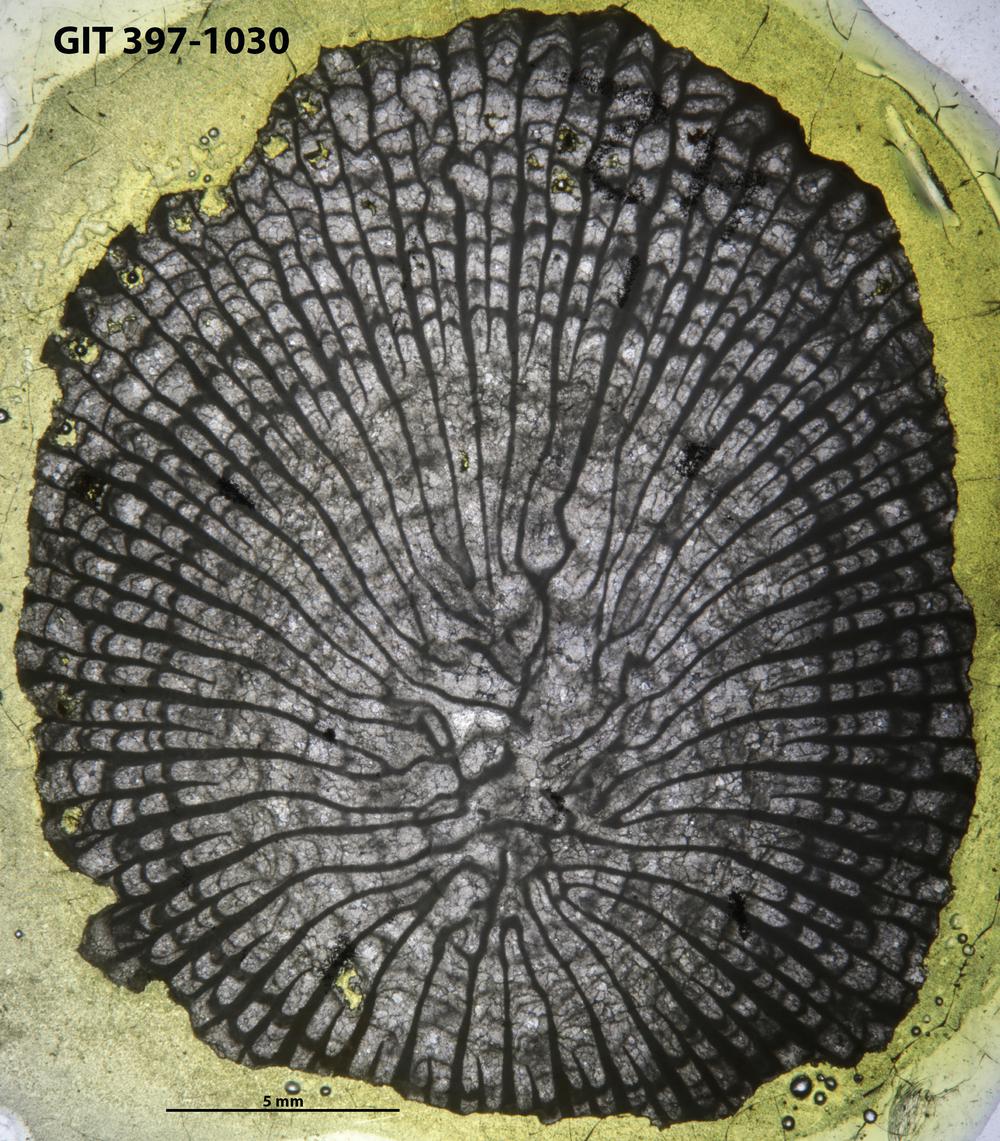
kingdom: Animalia
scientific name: Animalia
